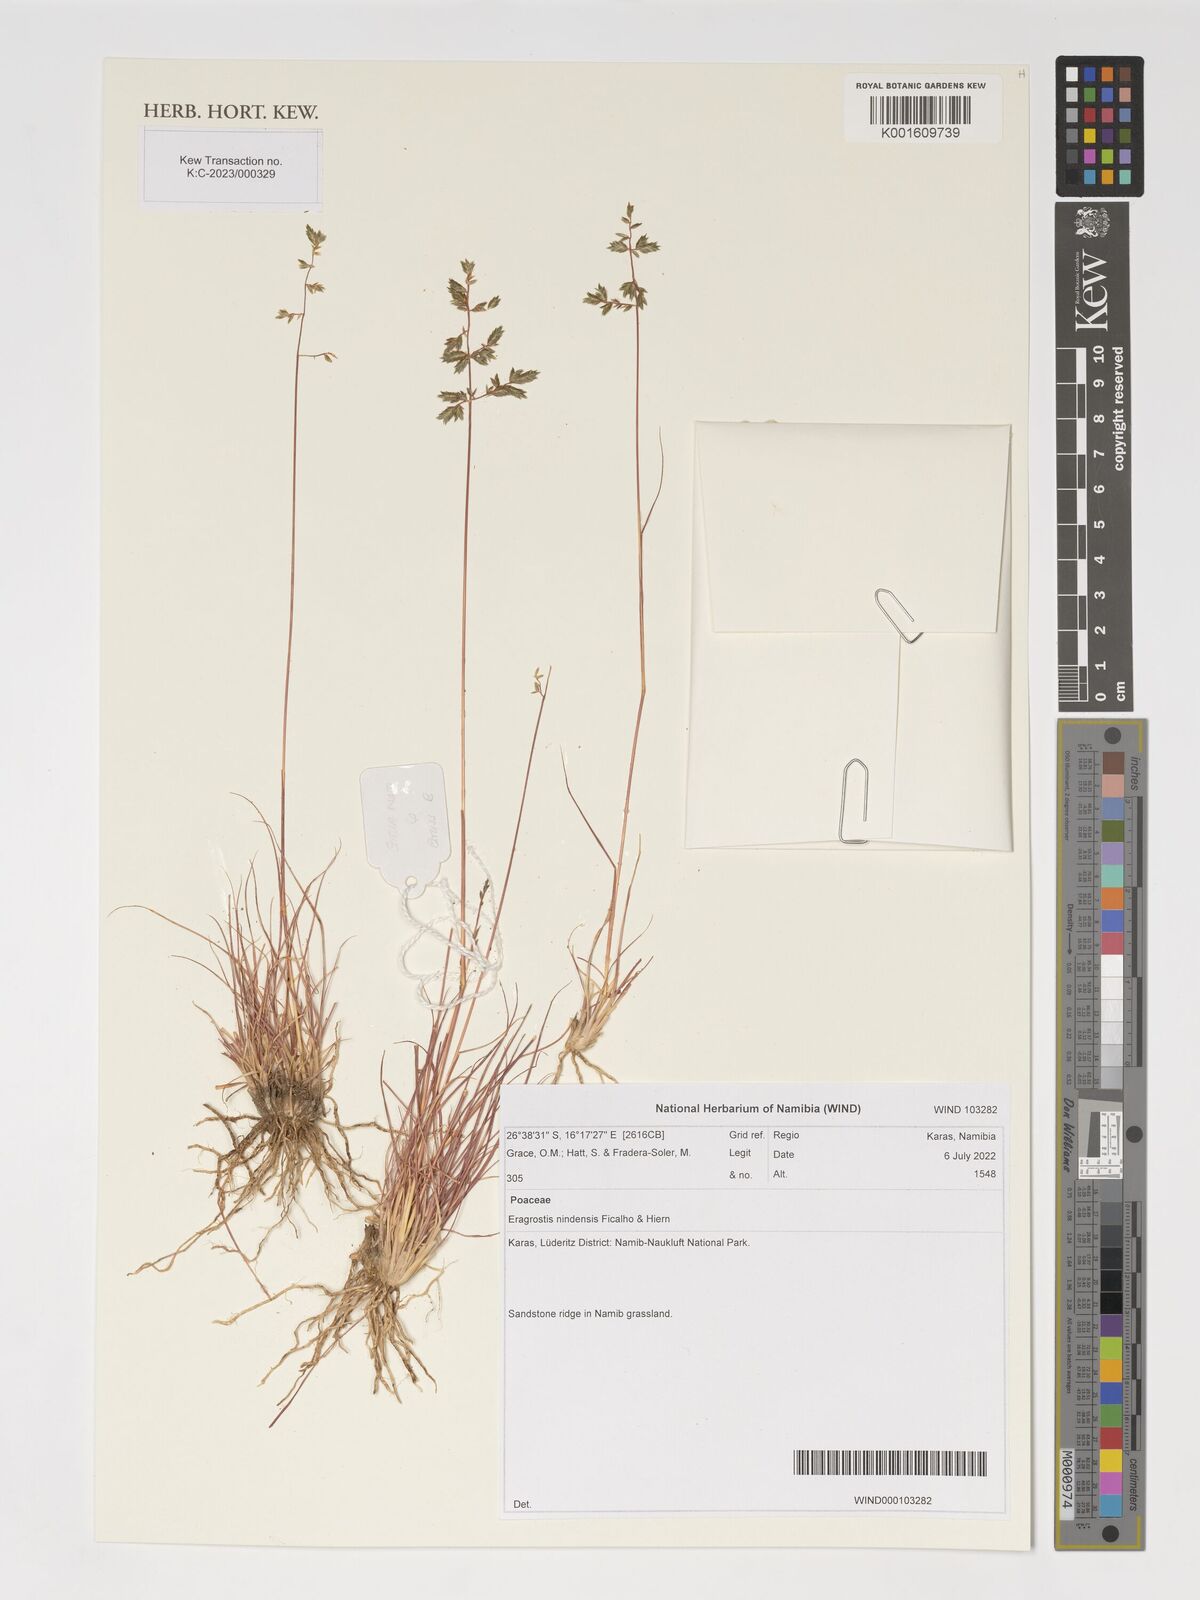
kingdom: Plantae
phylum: Tracheophyta
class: Liliopsida
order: Poales
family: Poaceae
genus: Eragrostis
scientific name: Eragrostis nindensis
